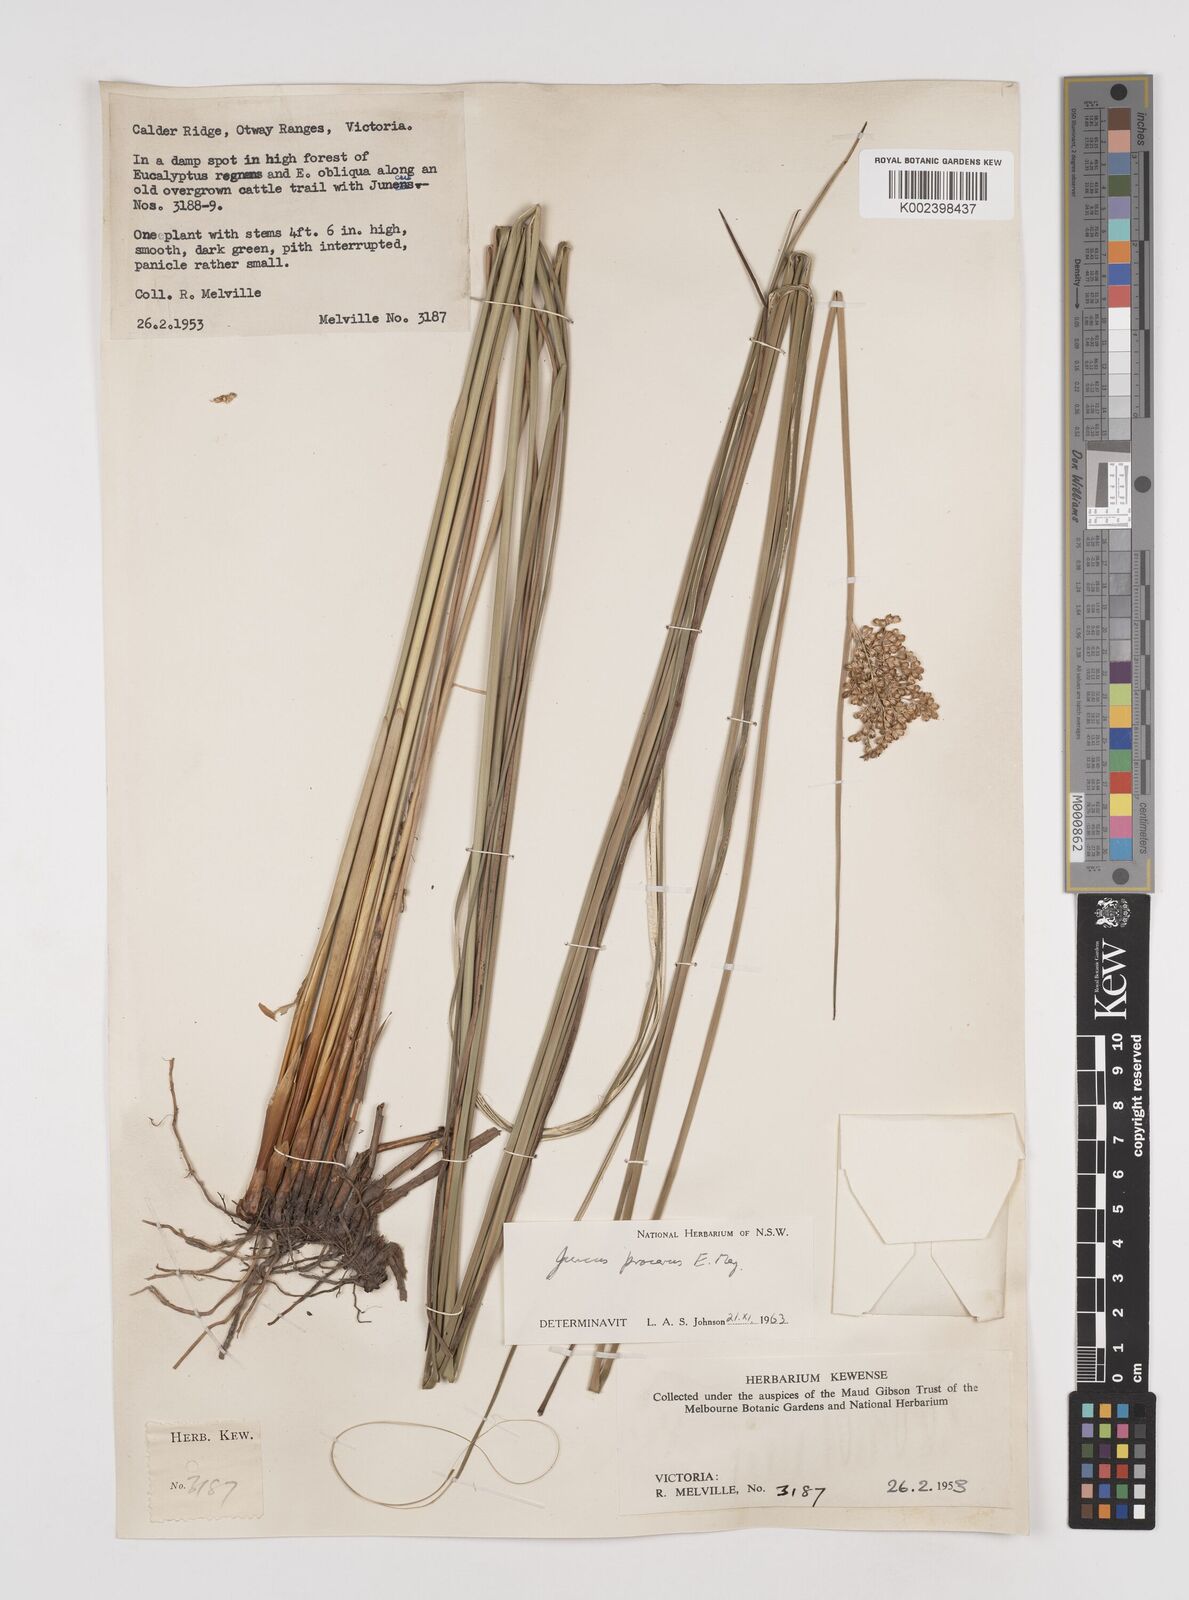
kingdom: Plantae
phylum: Tracheophyta
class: Liliopsida
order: Poales
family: Juncaceae
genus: Juncus
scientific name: Juncus procerus
